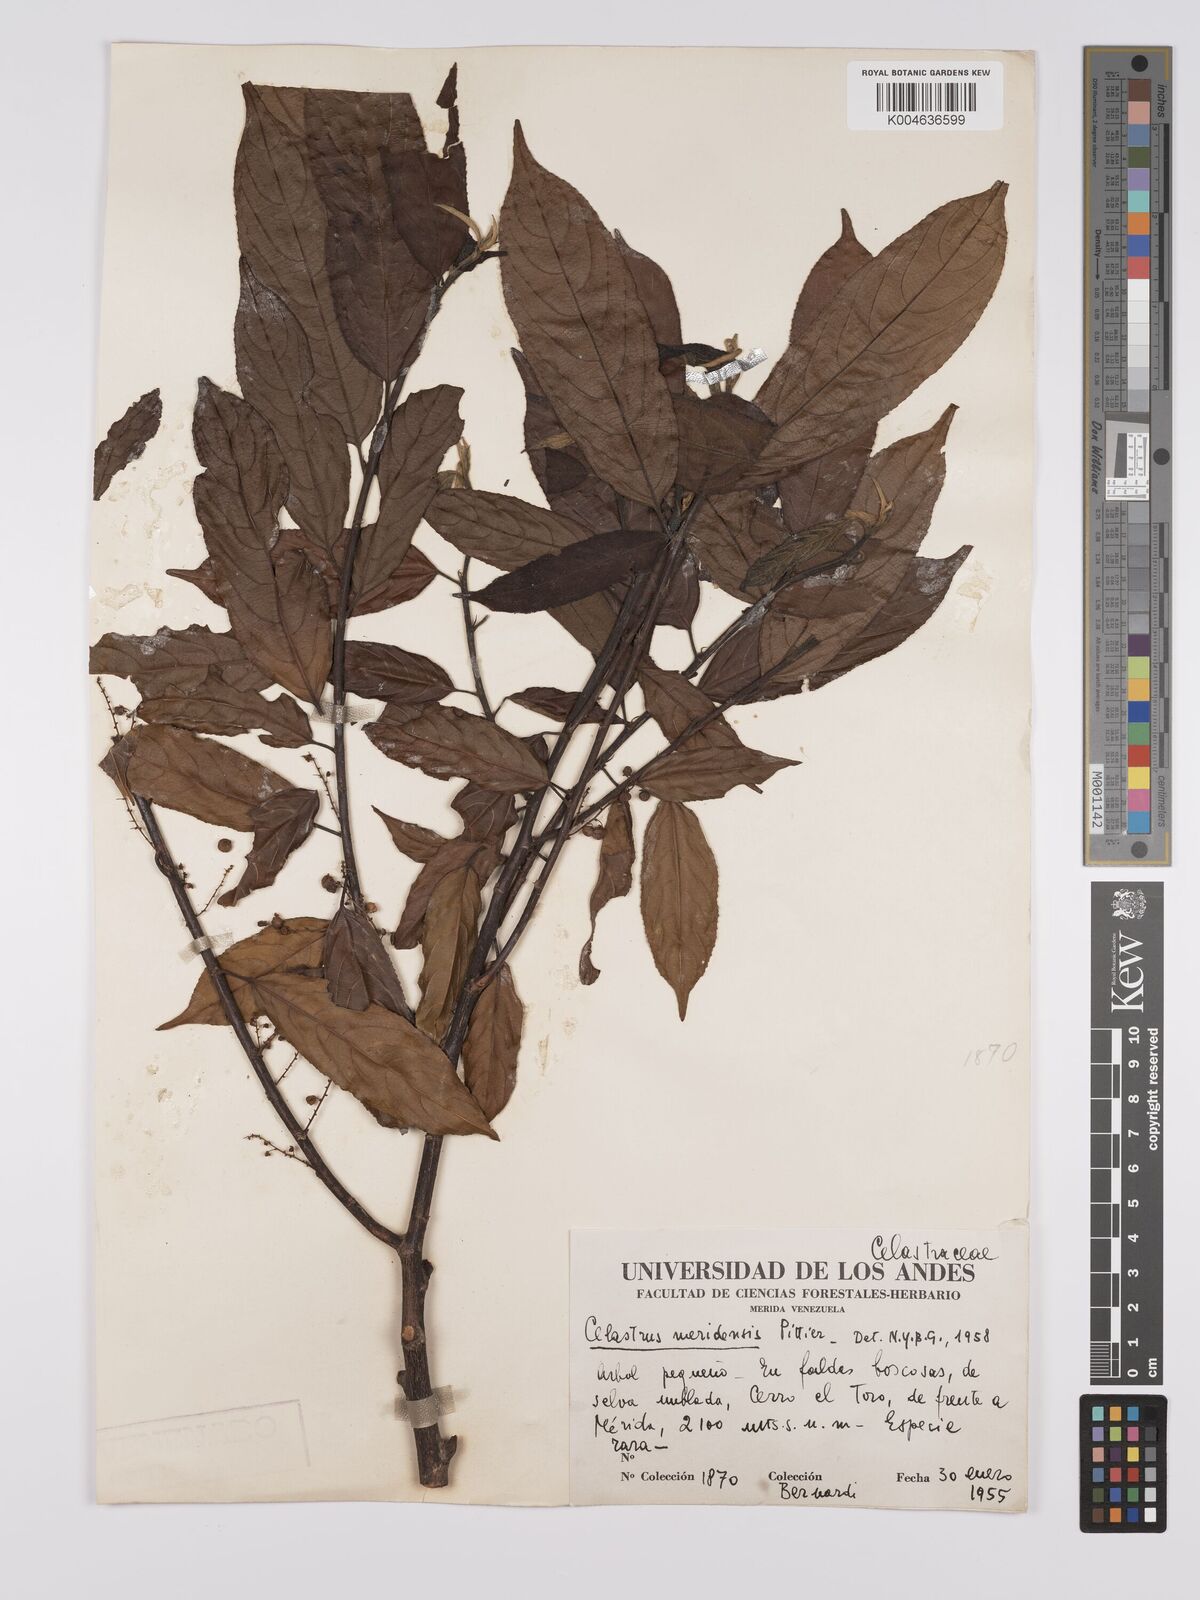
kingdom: Plantae
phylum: Tracheophyta
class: Magnoliopsida
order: Celastrales
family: Celastraceae
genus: Celastrus
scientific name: Celastrus meridensis
